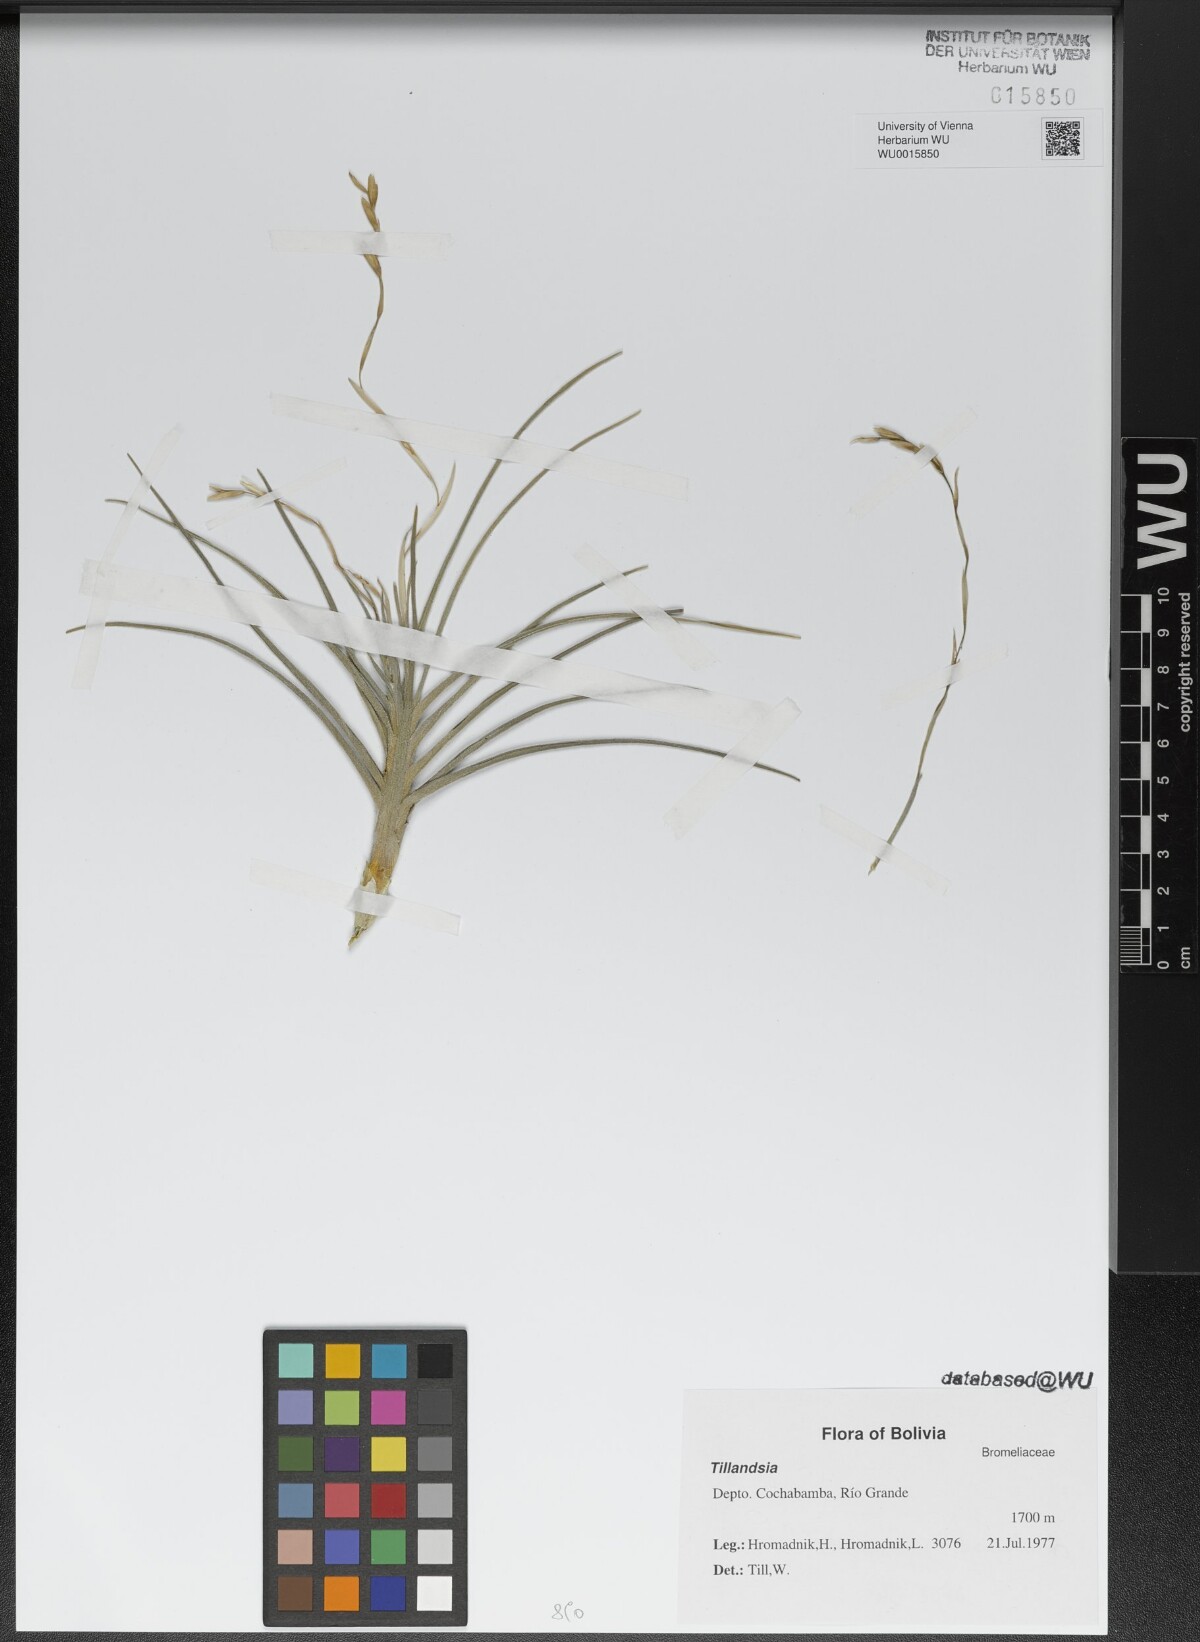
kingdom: Plantae
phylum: Tracheophyta
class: Liliopsida
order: Poales
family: Bromeliaceae
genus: Tillandsia
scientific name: Tillandsia
